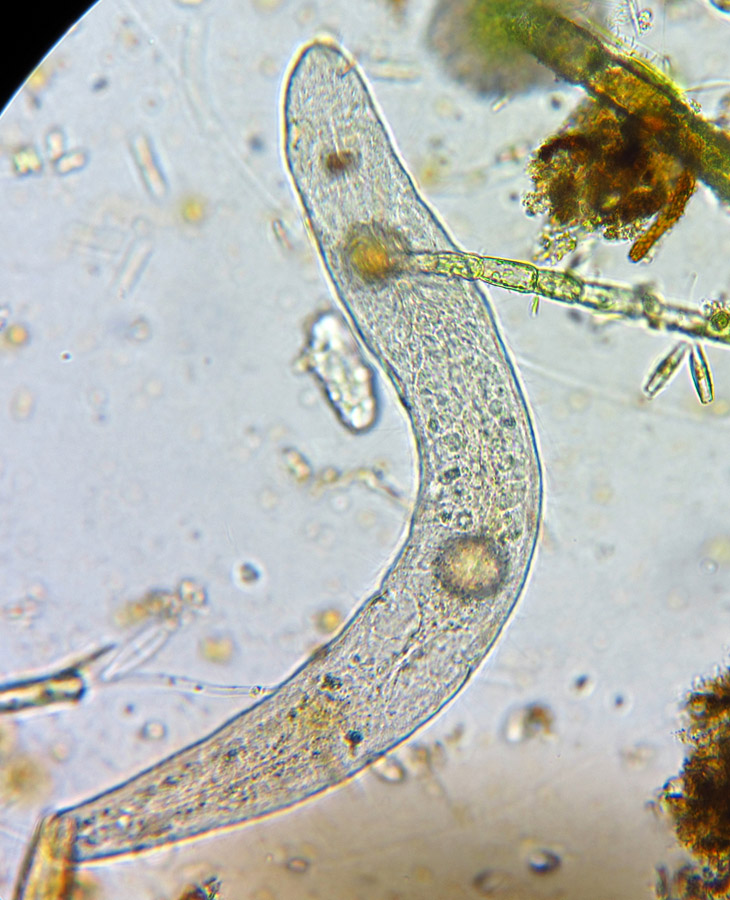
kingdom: Animalia
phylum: Platyhelminthes
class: Turbellaria
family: Stenostomidae
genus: Stenostomum
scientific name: Stenostomum sphagnetorum
